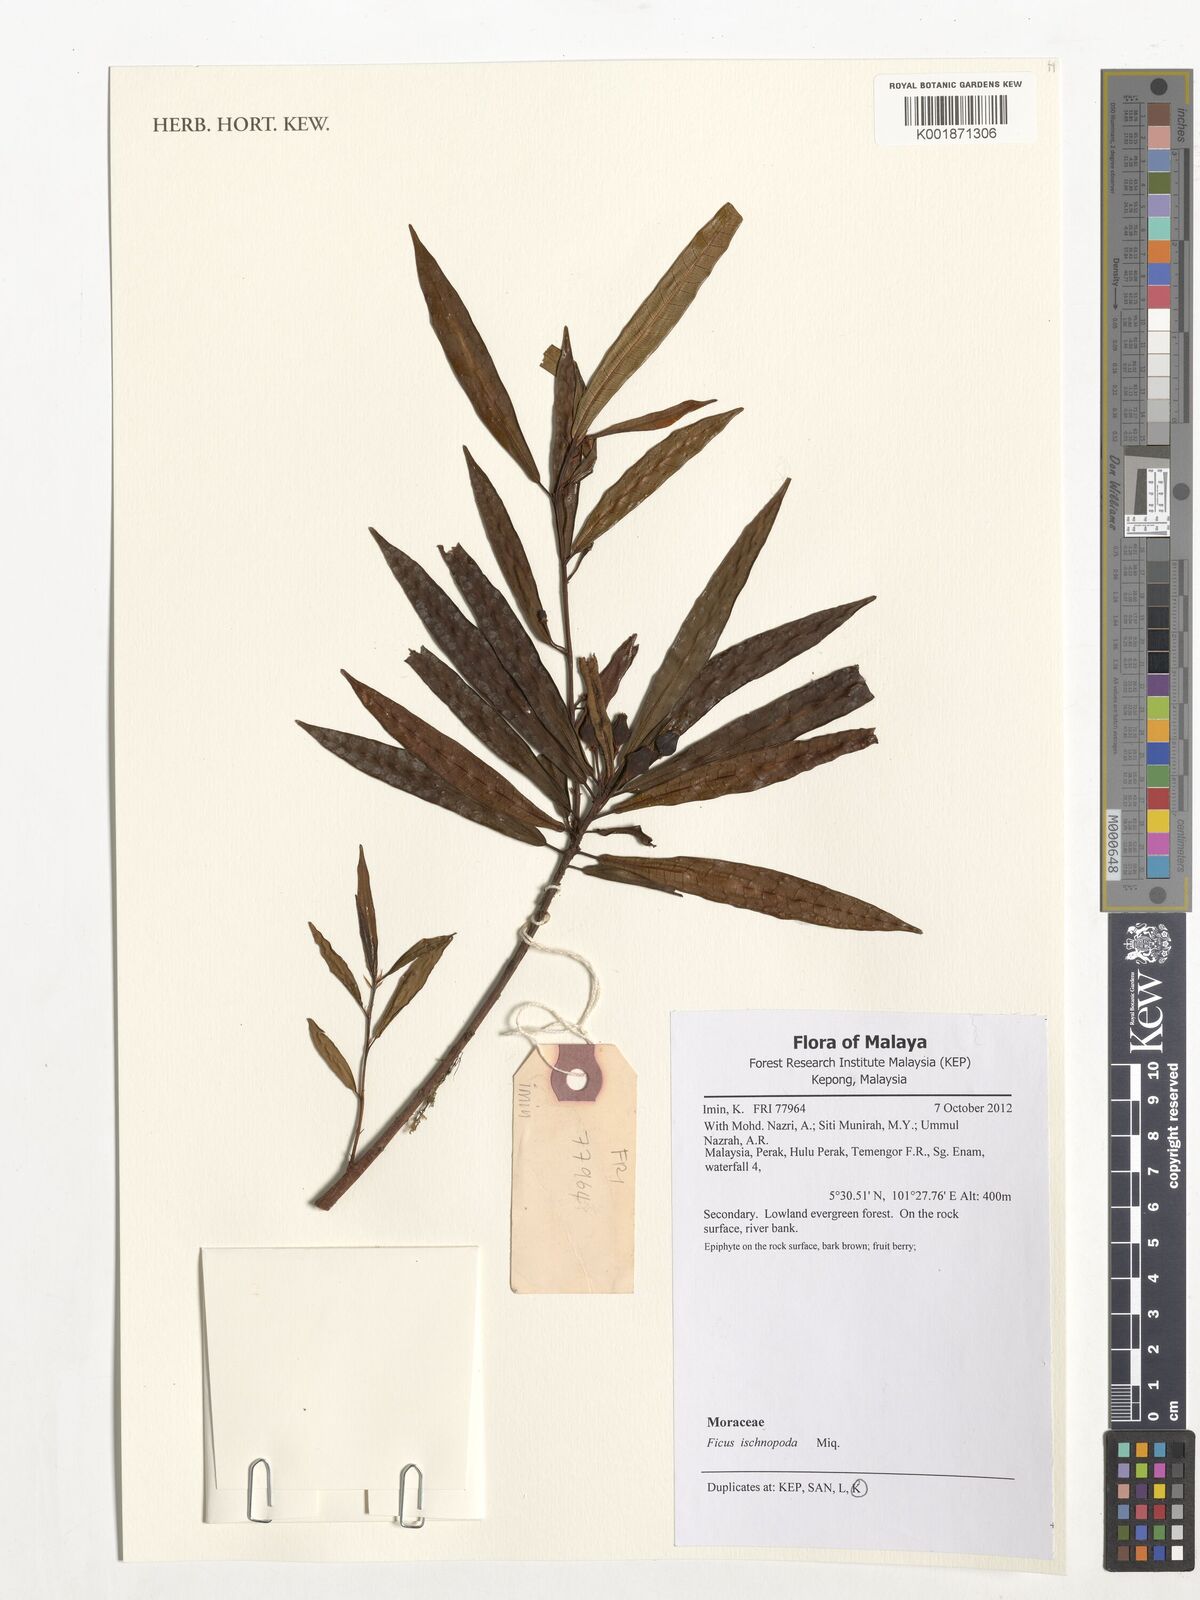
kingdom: Plantae
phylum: Tracheophyta
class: Magnoliopsida
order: Rosales
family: Moraceae
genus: Ficus
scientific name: Ficus ischnopoda
